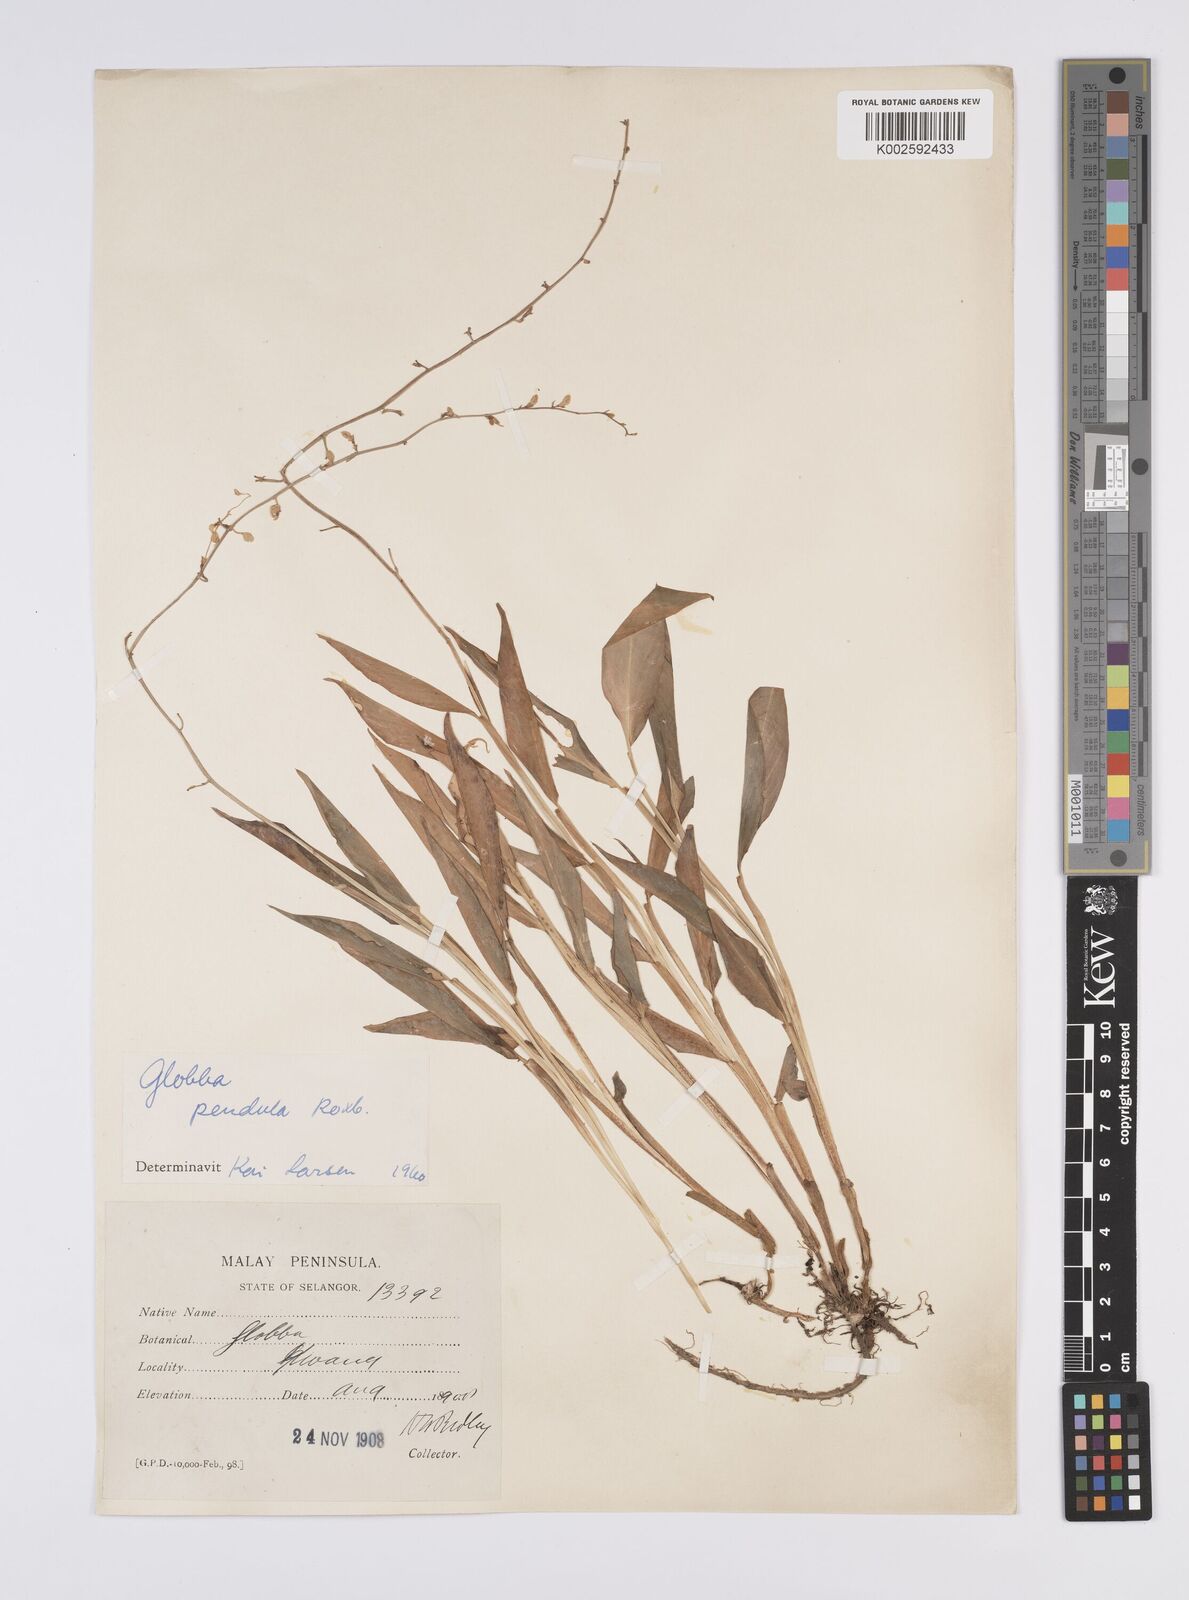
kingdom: Plantae
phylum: Tracheophyta
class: Liliopsida
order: Zingiberales
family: Zingiberaceae
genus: Globba
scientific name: Globba pendula
